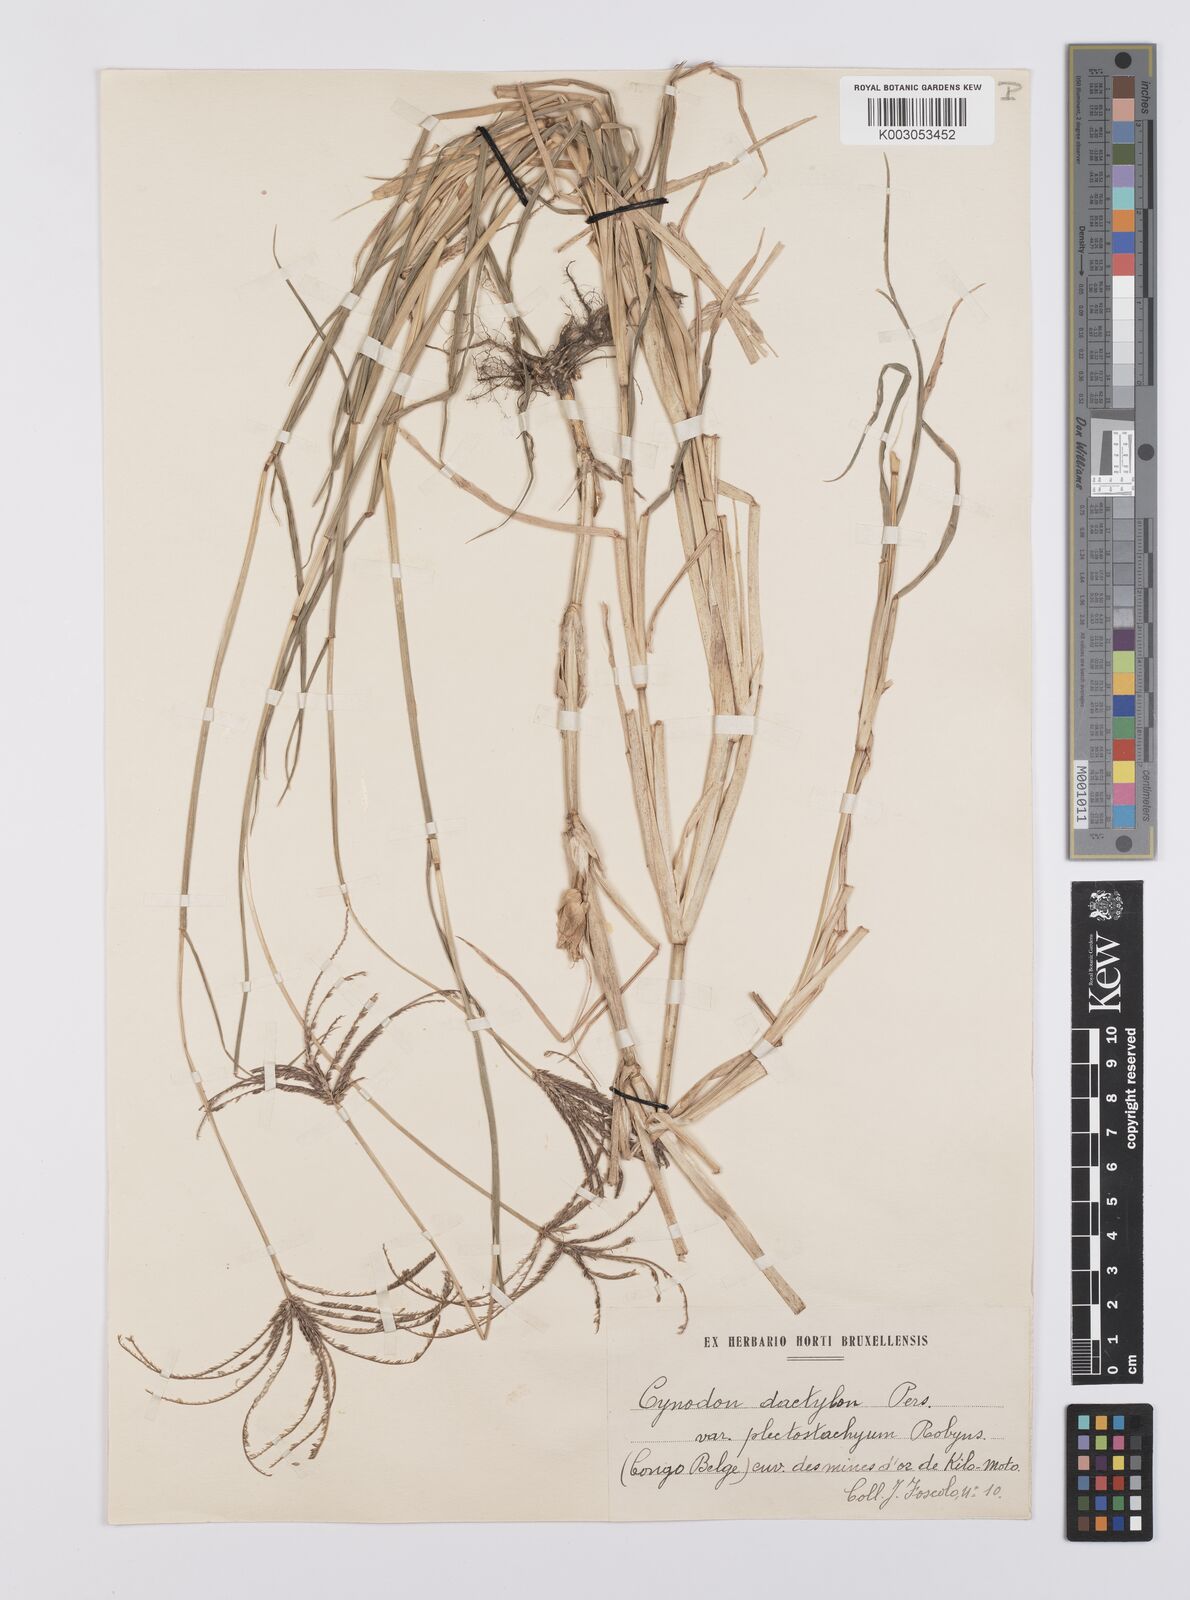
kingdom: Plantae
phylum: Tracheophyta
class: Liliopsida
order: Poales
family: Poaceae
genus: Cynodon
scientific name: Cynodon aethiopicus
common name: Ethiopian dogstooth grass
